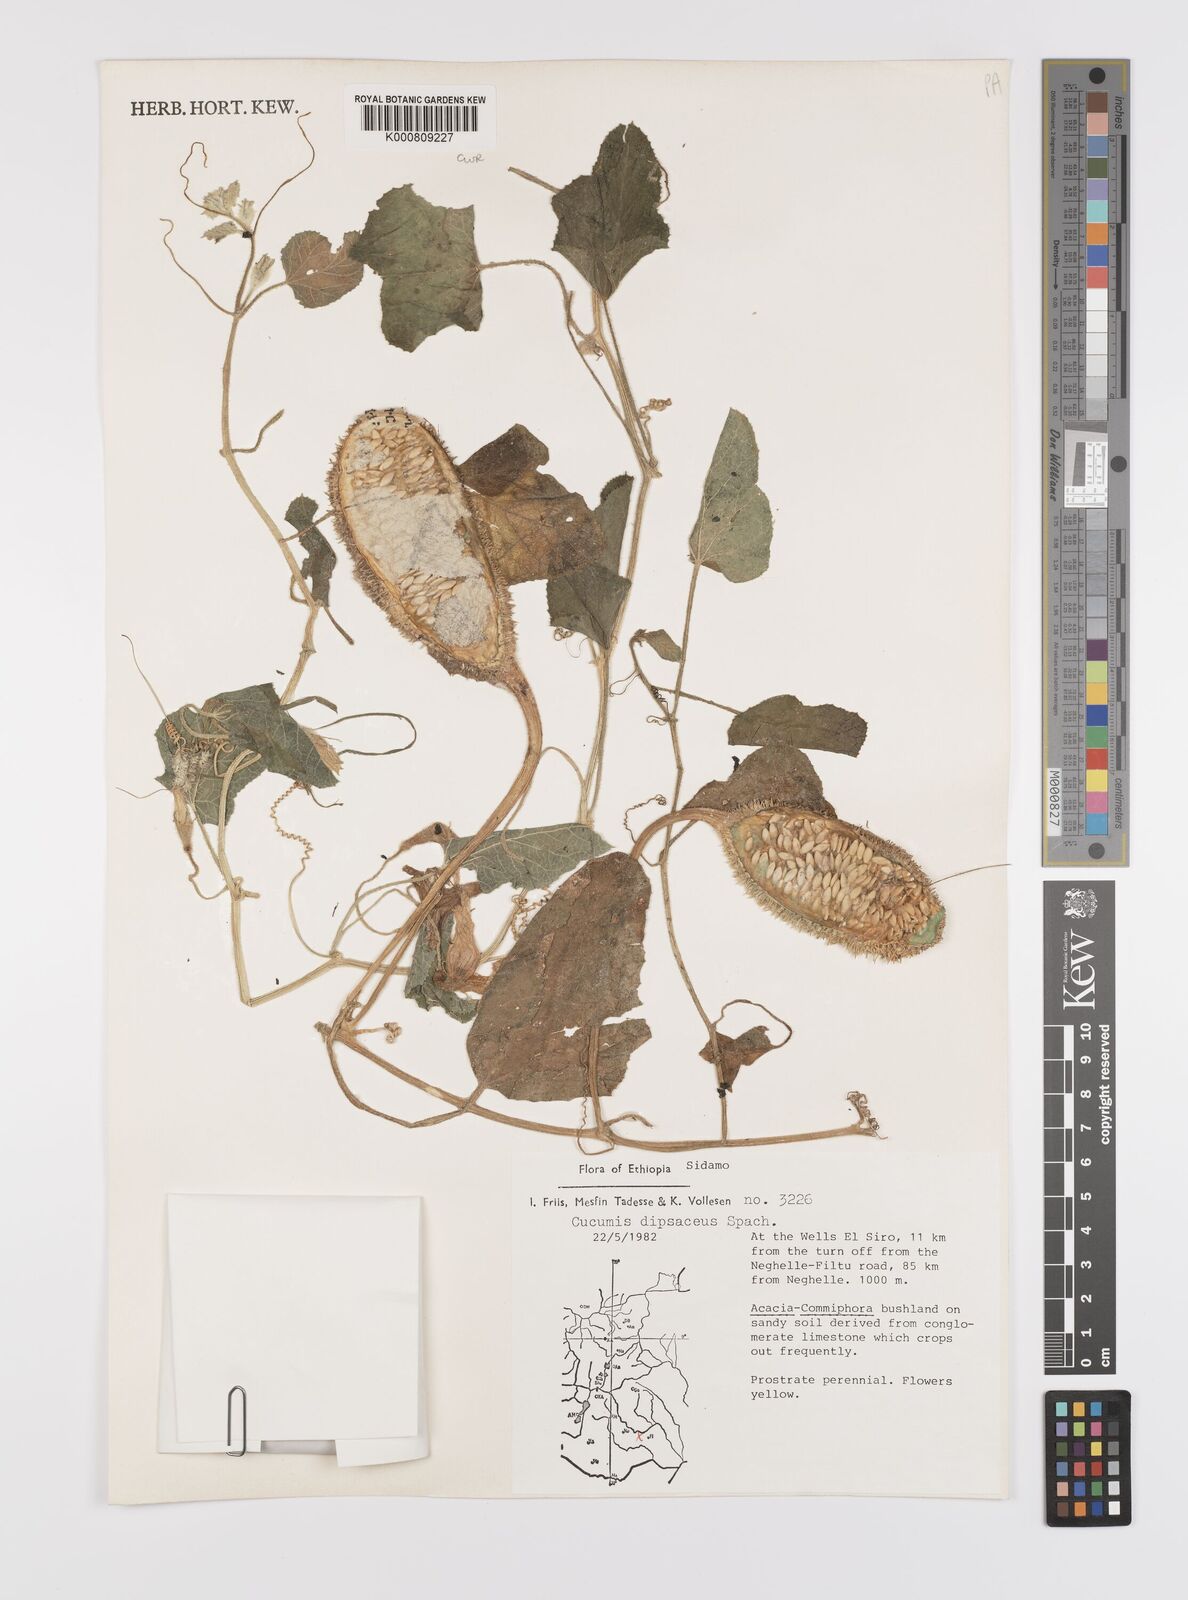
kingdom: Plantae
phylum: Tracheophyta
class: Magnoliopsida
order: Cucurbitales
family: Cucurbitaceae
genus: Cucumis
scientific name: Cucumis dipsaceus
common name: Hedgehog gourd
